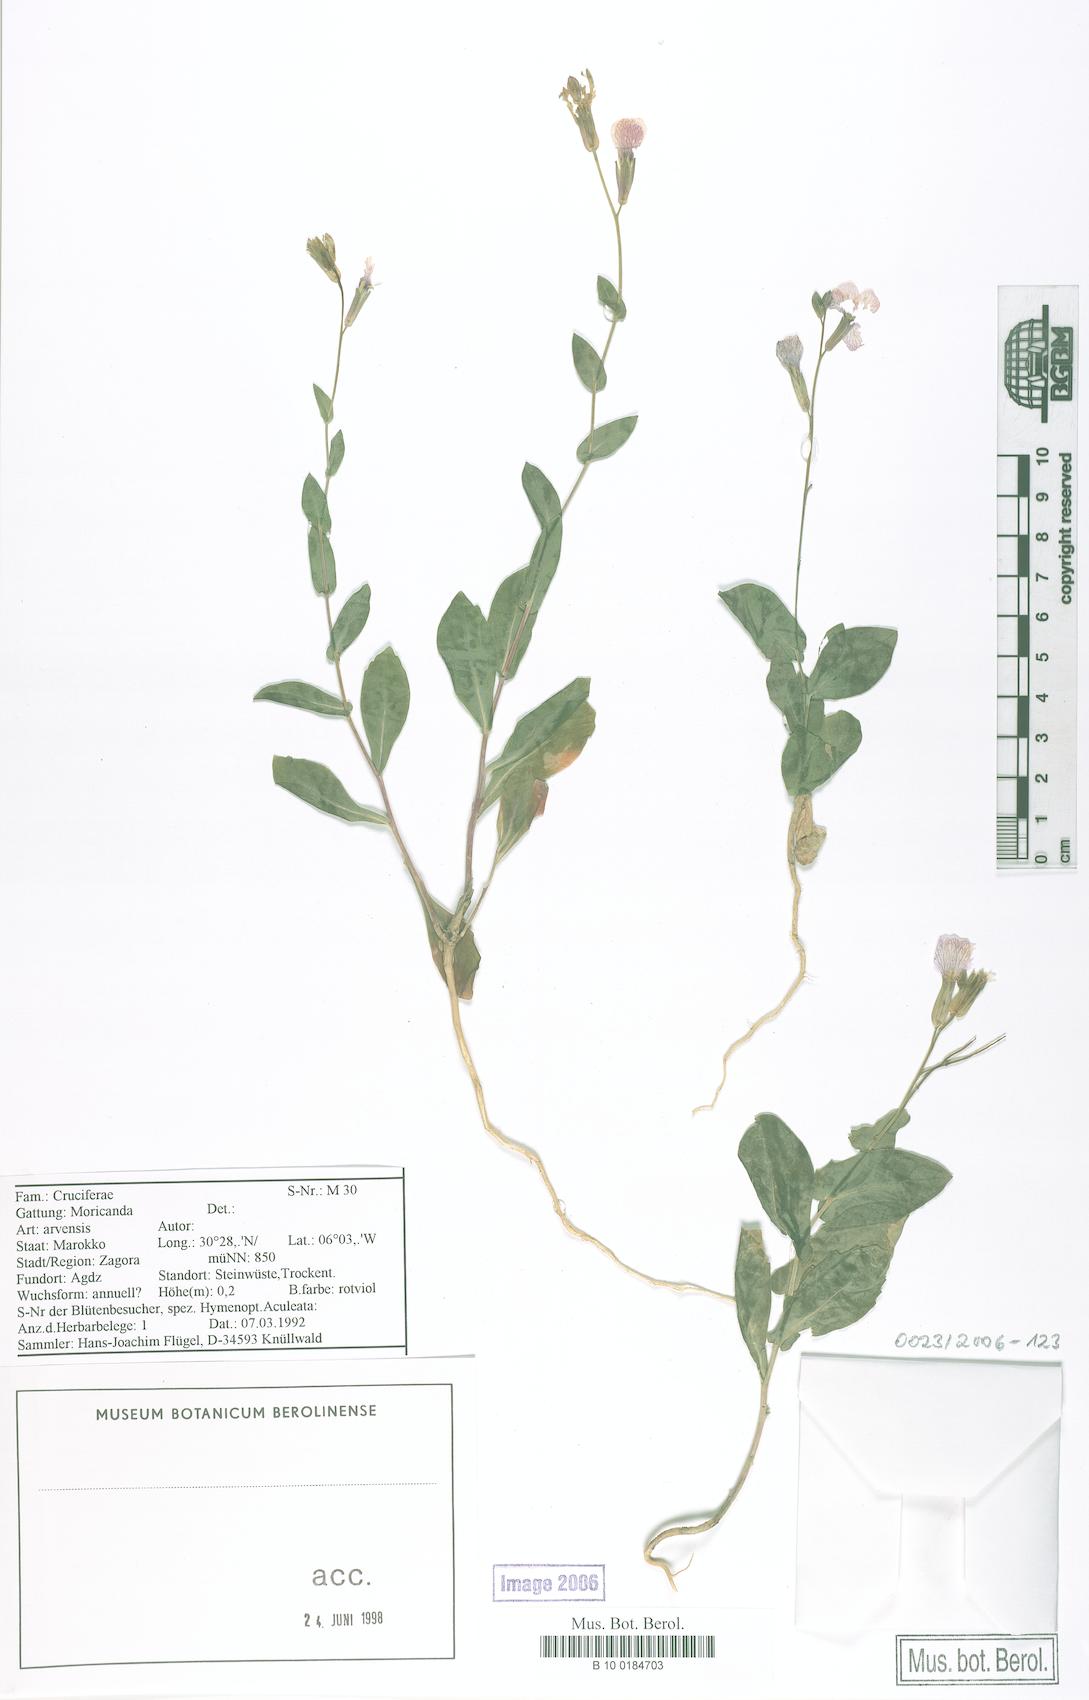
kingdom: Plantae
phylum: Tracheophyta
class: Magnoliopsida
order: Brassicales
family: Brassicaceae
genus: Moricandia
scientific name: Moricandia arvensis
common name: Purple mistress
